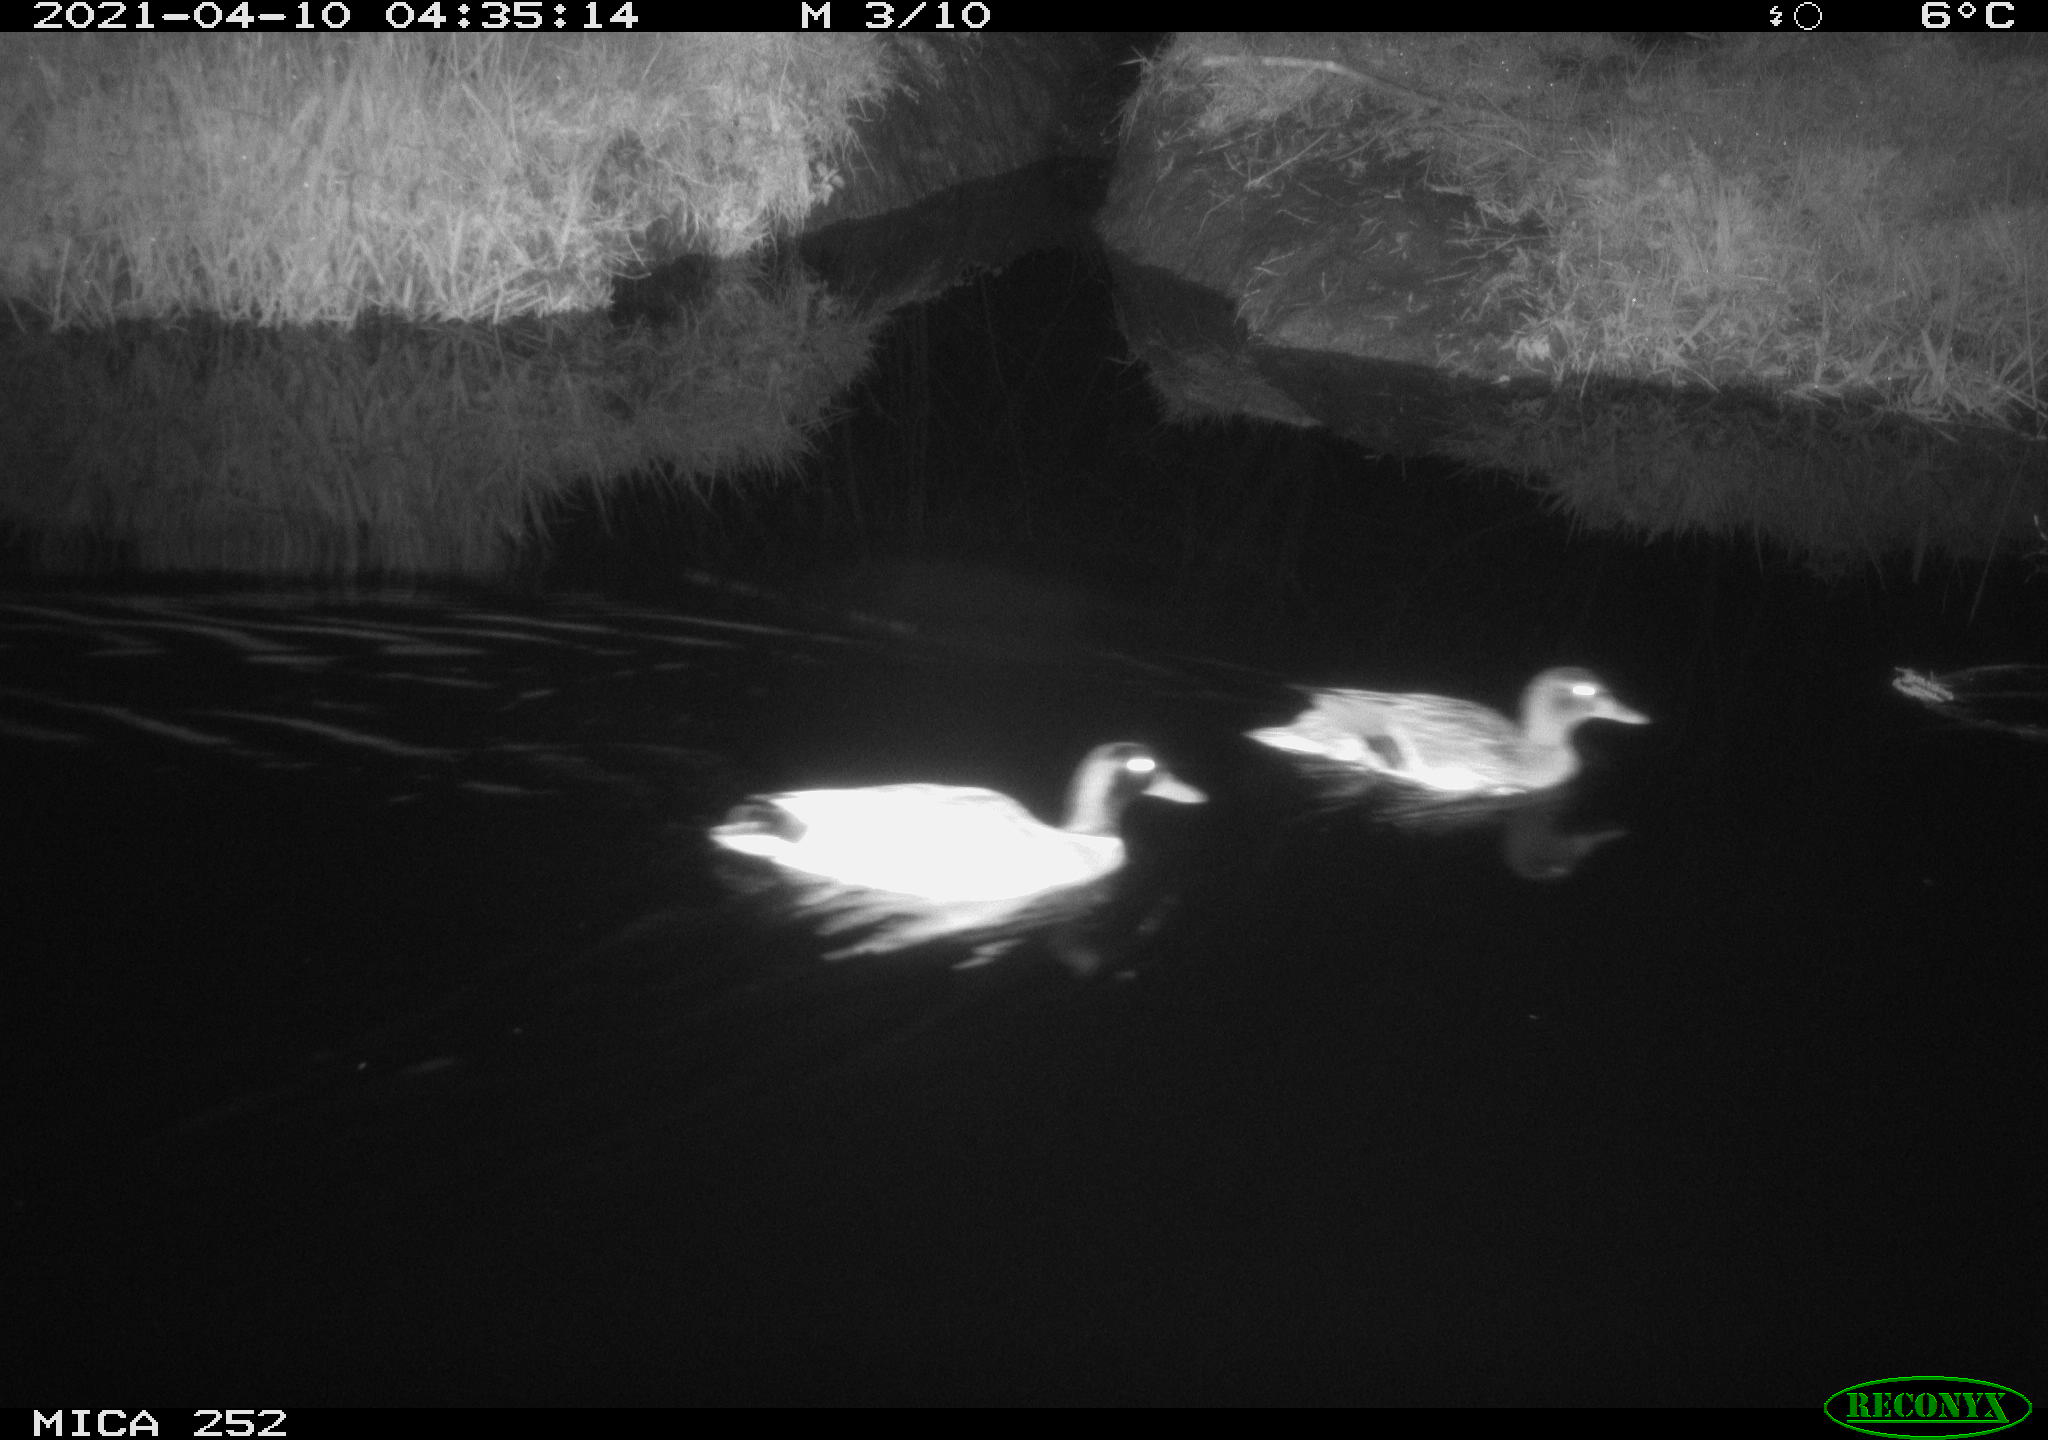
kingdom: Animalia
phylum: Chordata
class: Aves
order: Anseriformes
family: Anatidae
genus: Anas
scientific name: Anas platyrhynchos
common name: Mallard
